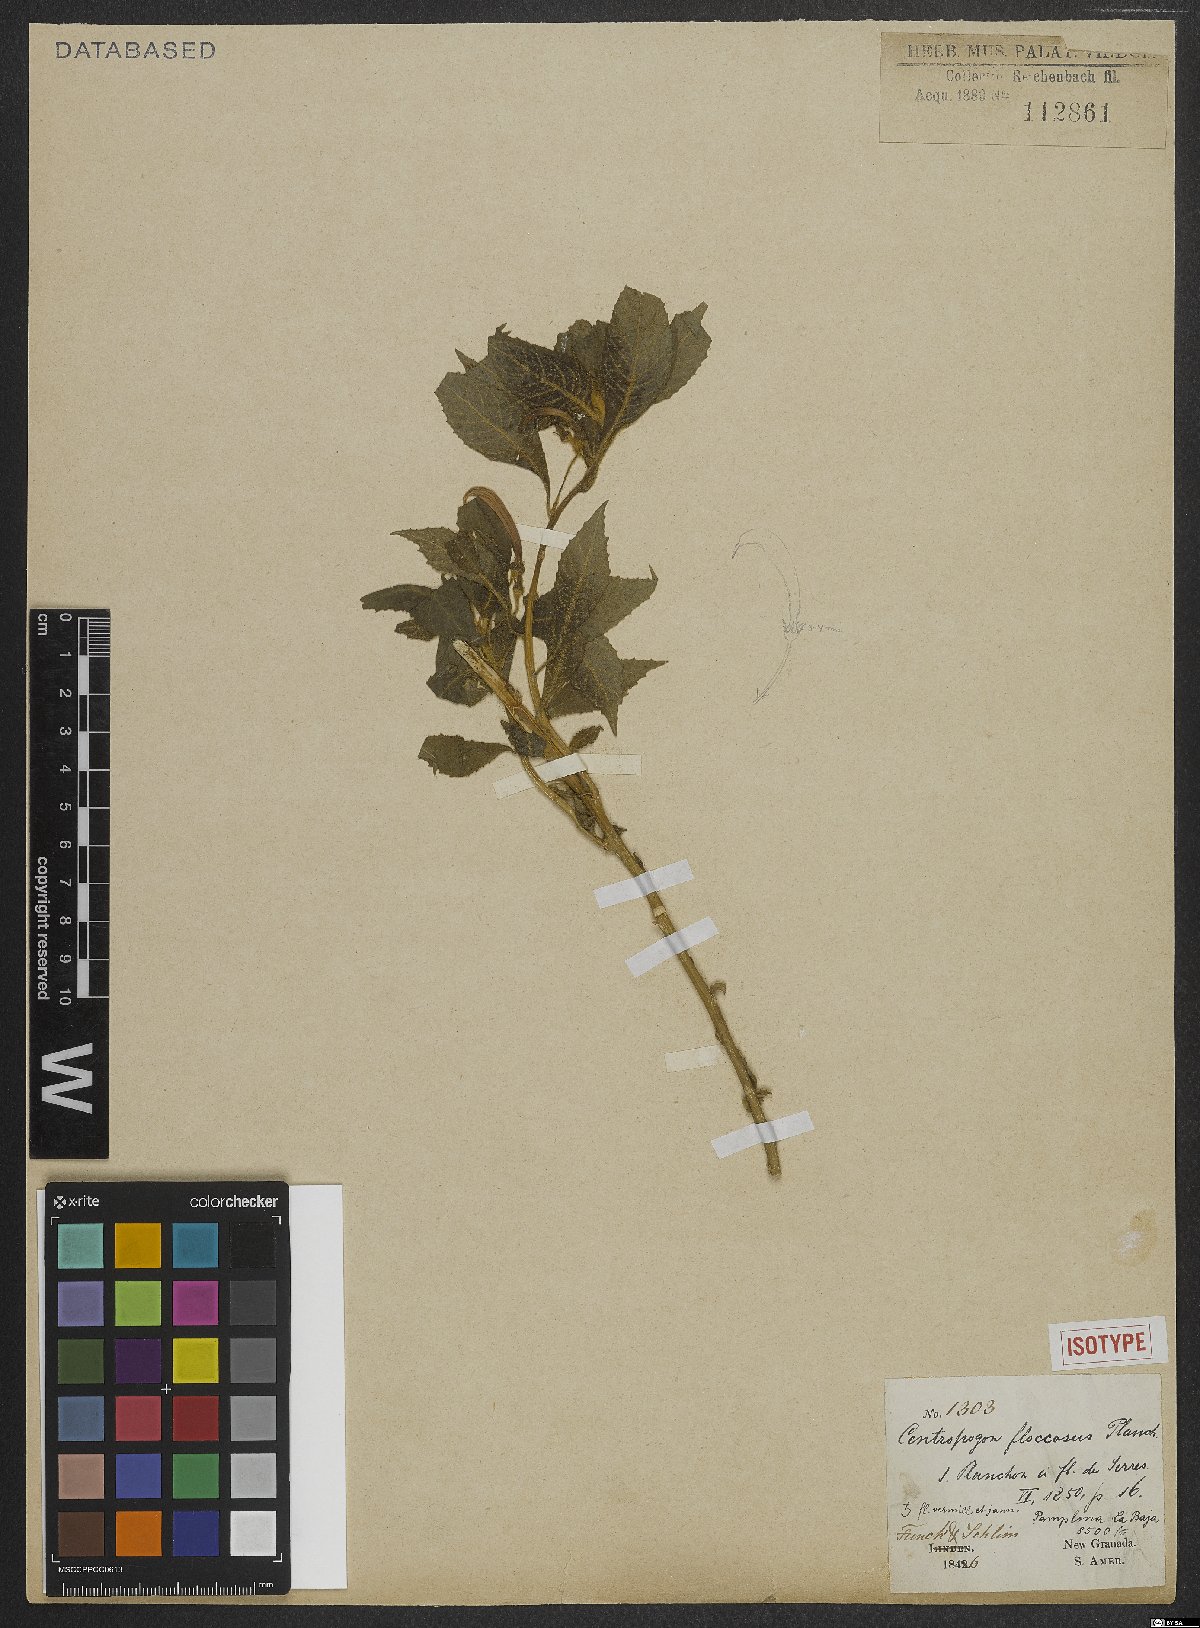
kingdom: Plantae
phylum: Tracheophyta
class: Magnoliopsida
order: Asterales
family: Campanulaceae
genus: Centropogon
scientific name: Centropogon floccosus
